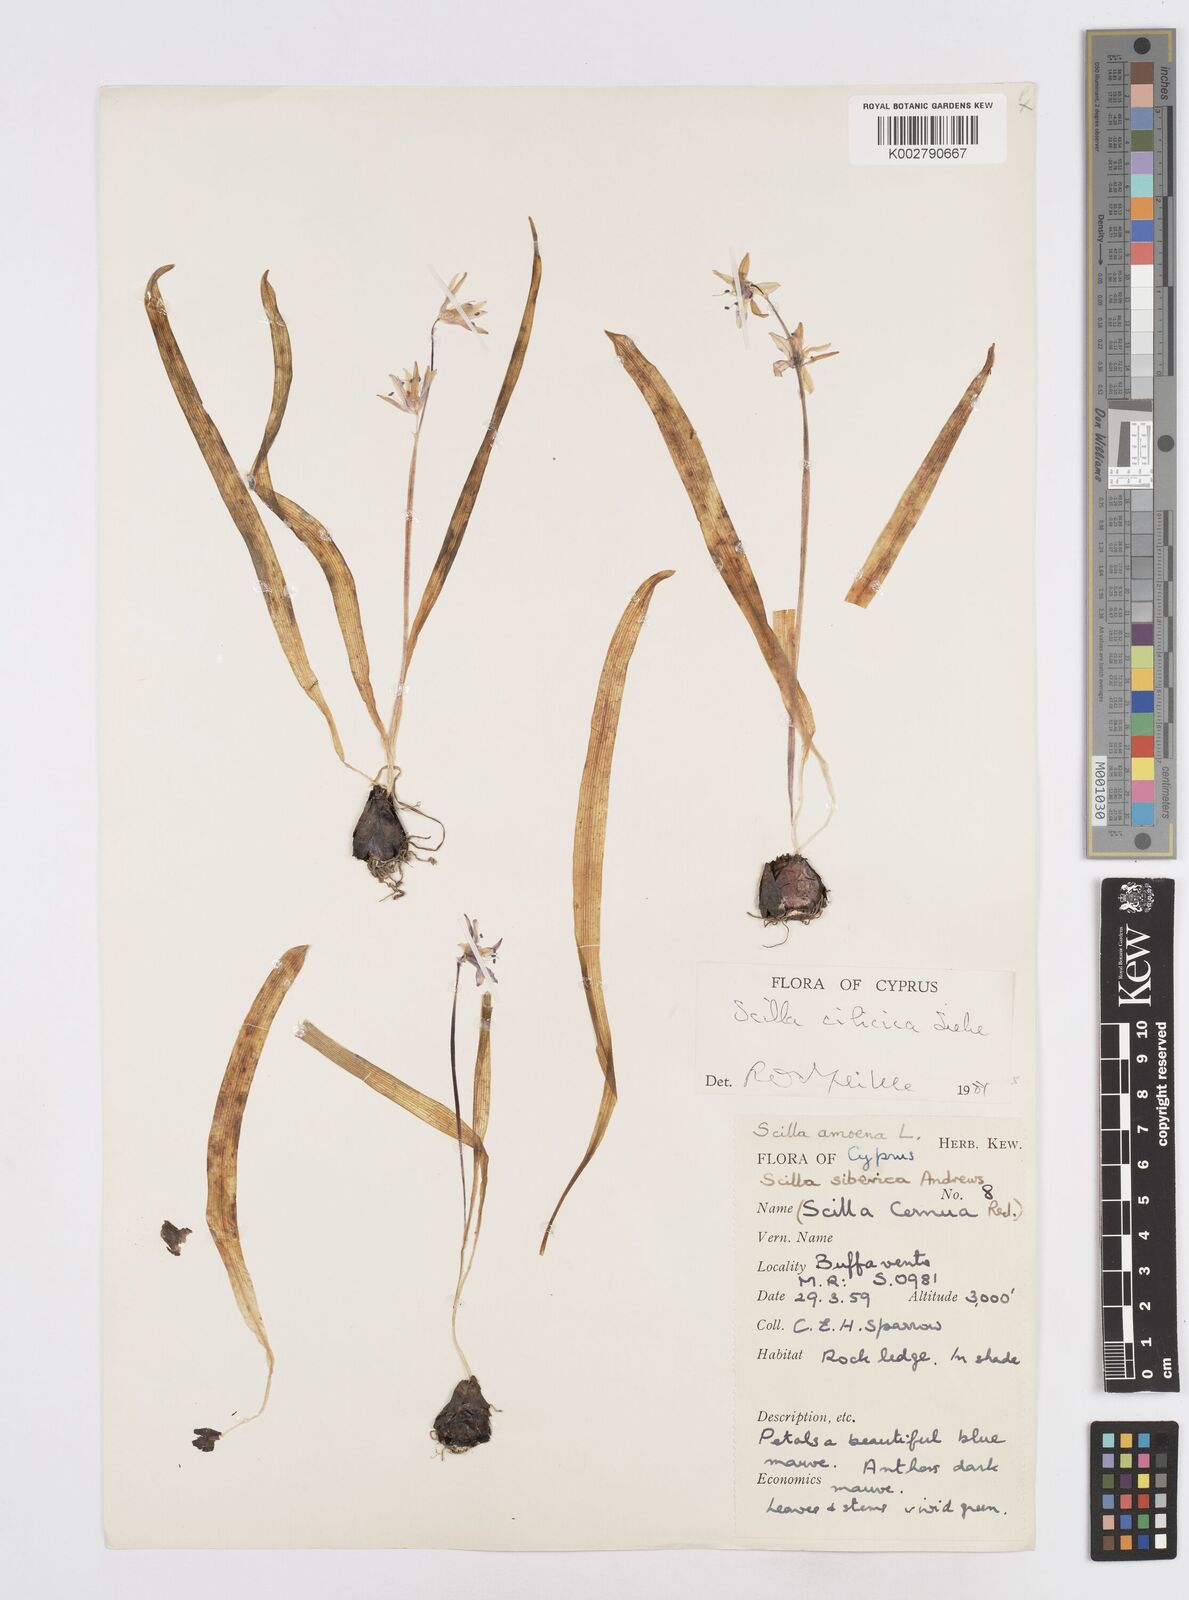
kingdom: Plantae
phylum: Tracheophyta
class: Liliopsida
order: Asparagales
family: Asparagaceae
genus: Scilla
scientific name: Scilla siberica
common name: Siberian squill
